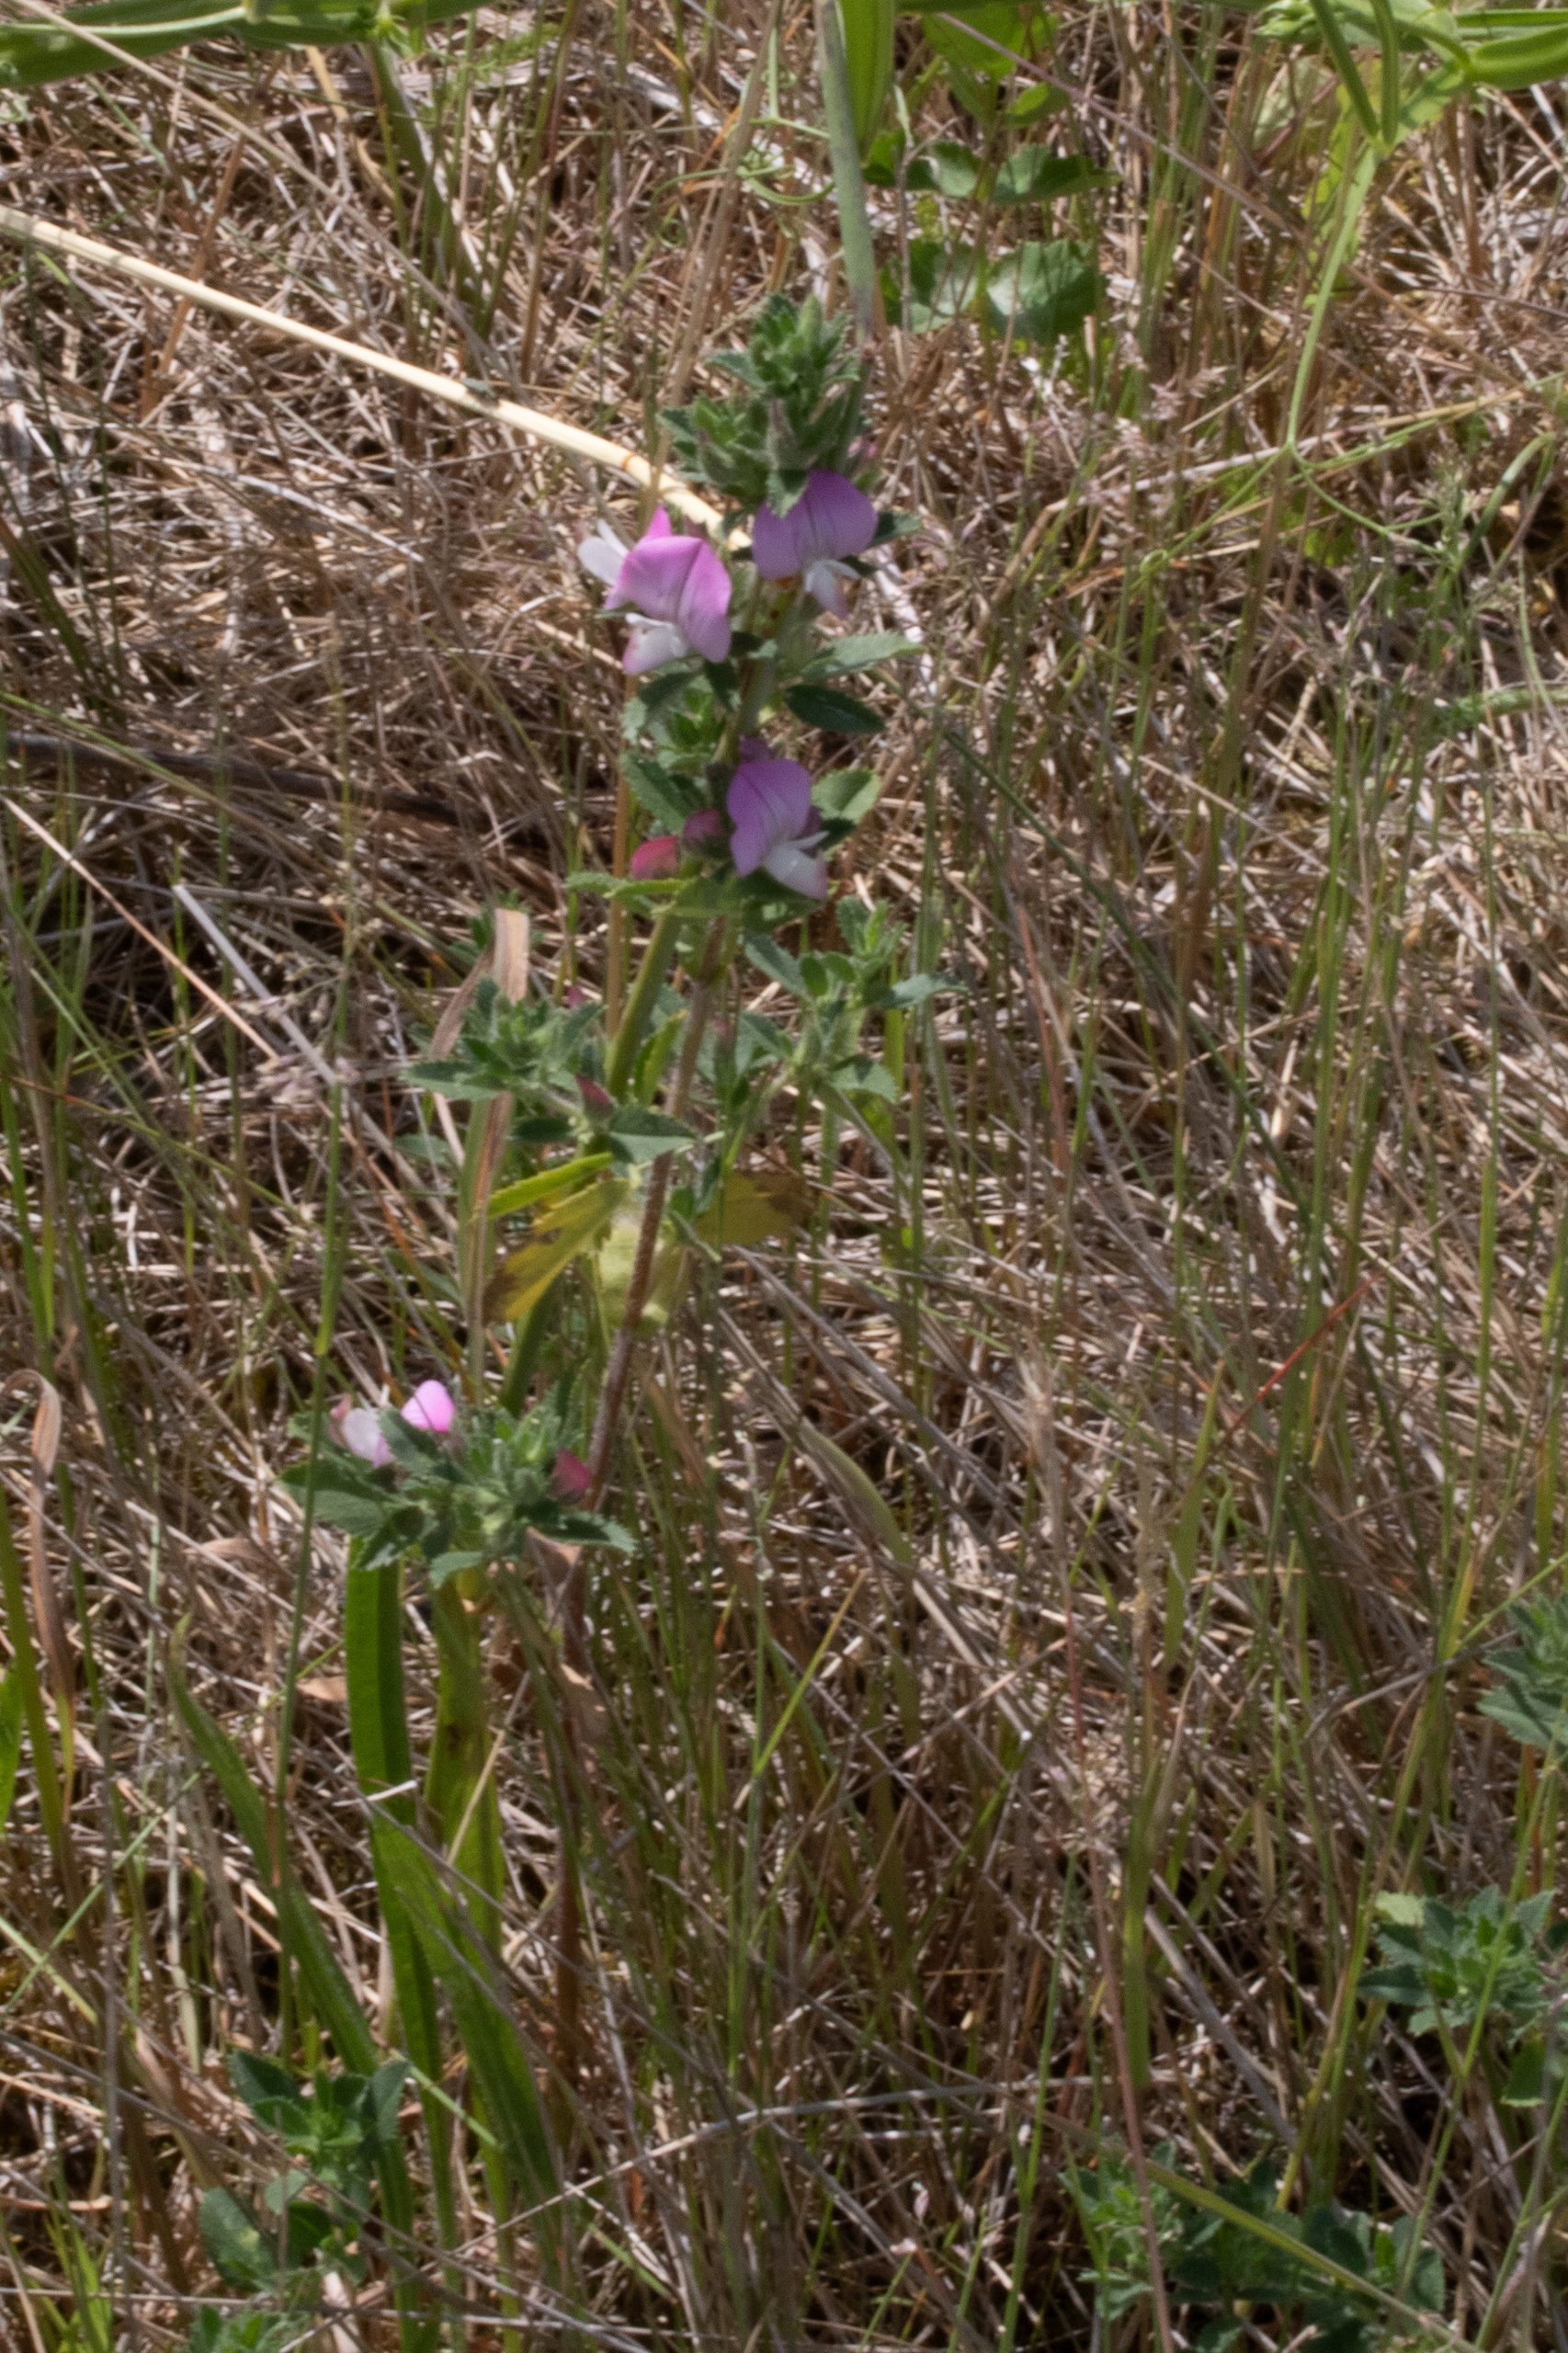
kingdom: Plantae
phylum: Tracheophyta
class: Magnoliopsida
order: Fabales
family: Fabaceae
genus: Ononis
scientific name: Ononis spinosa
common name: Mark-krageklo
